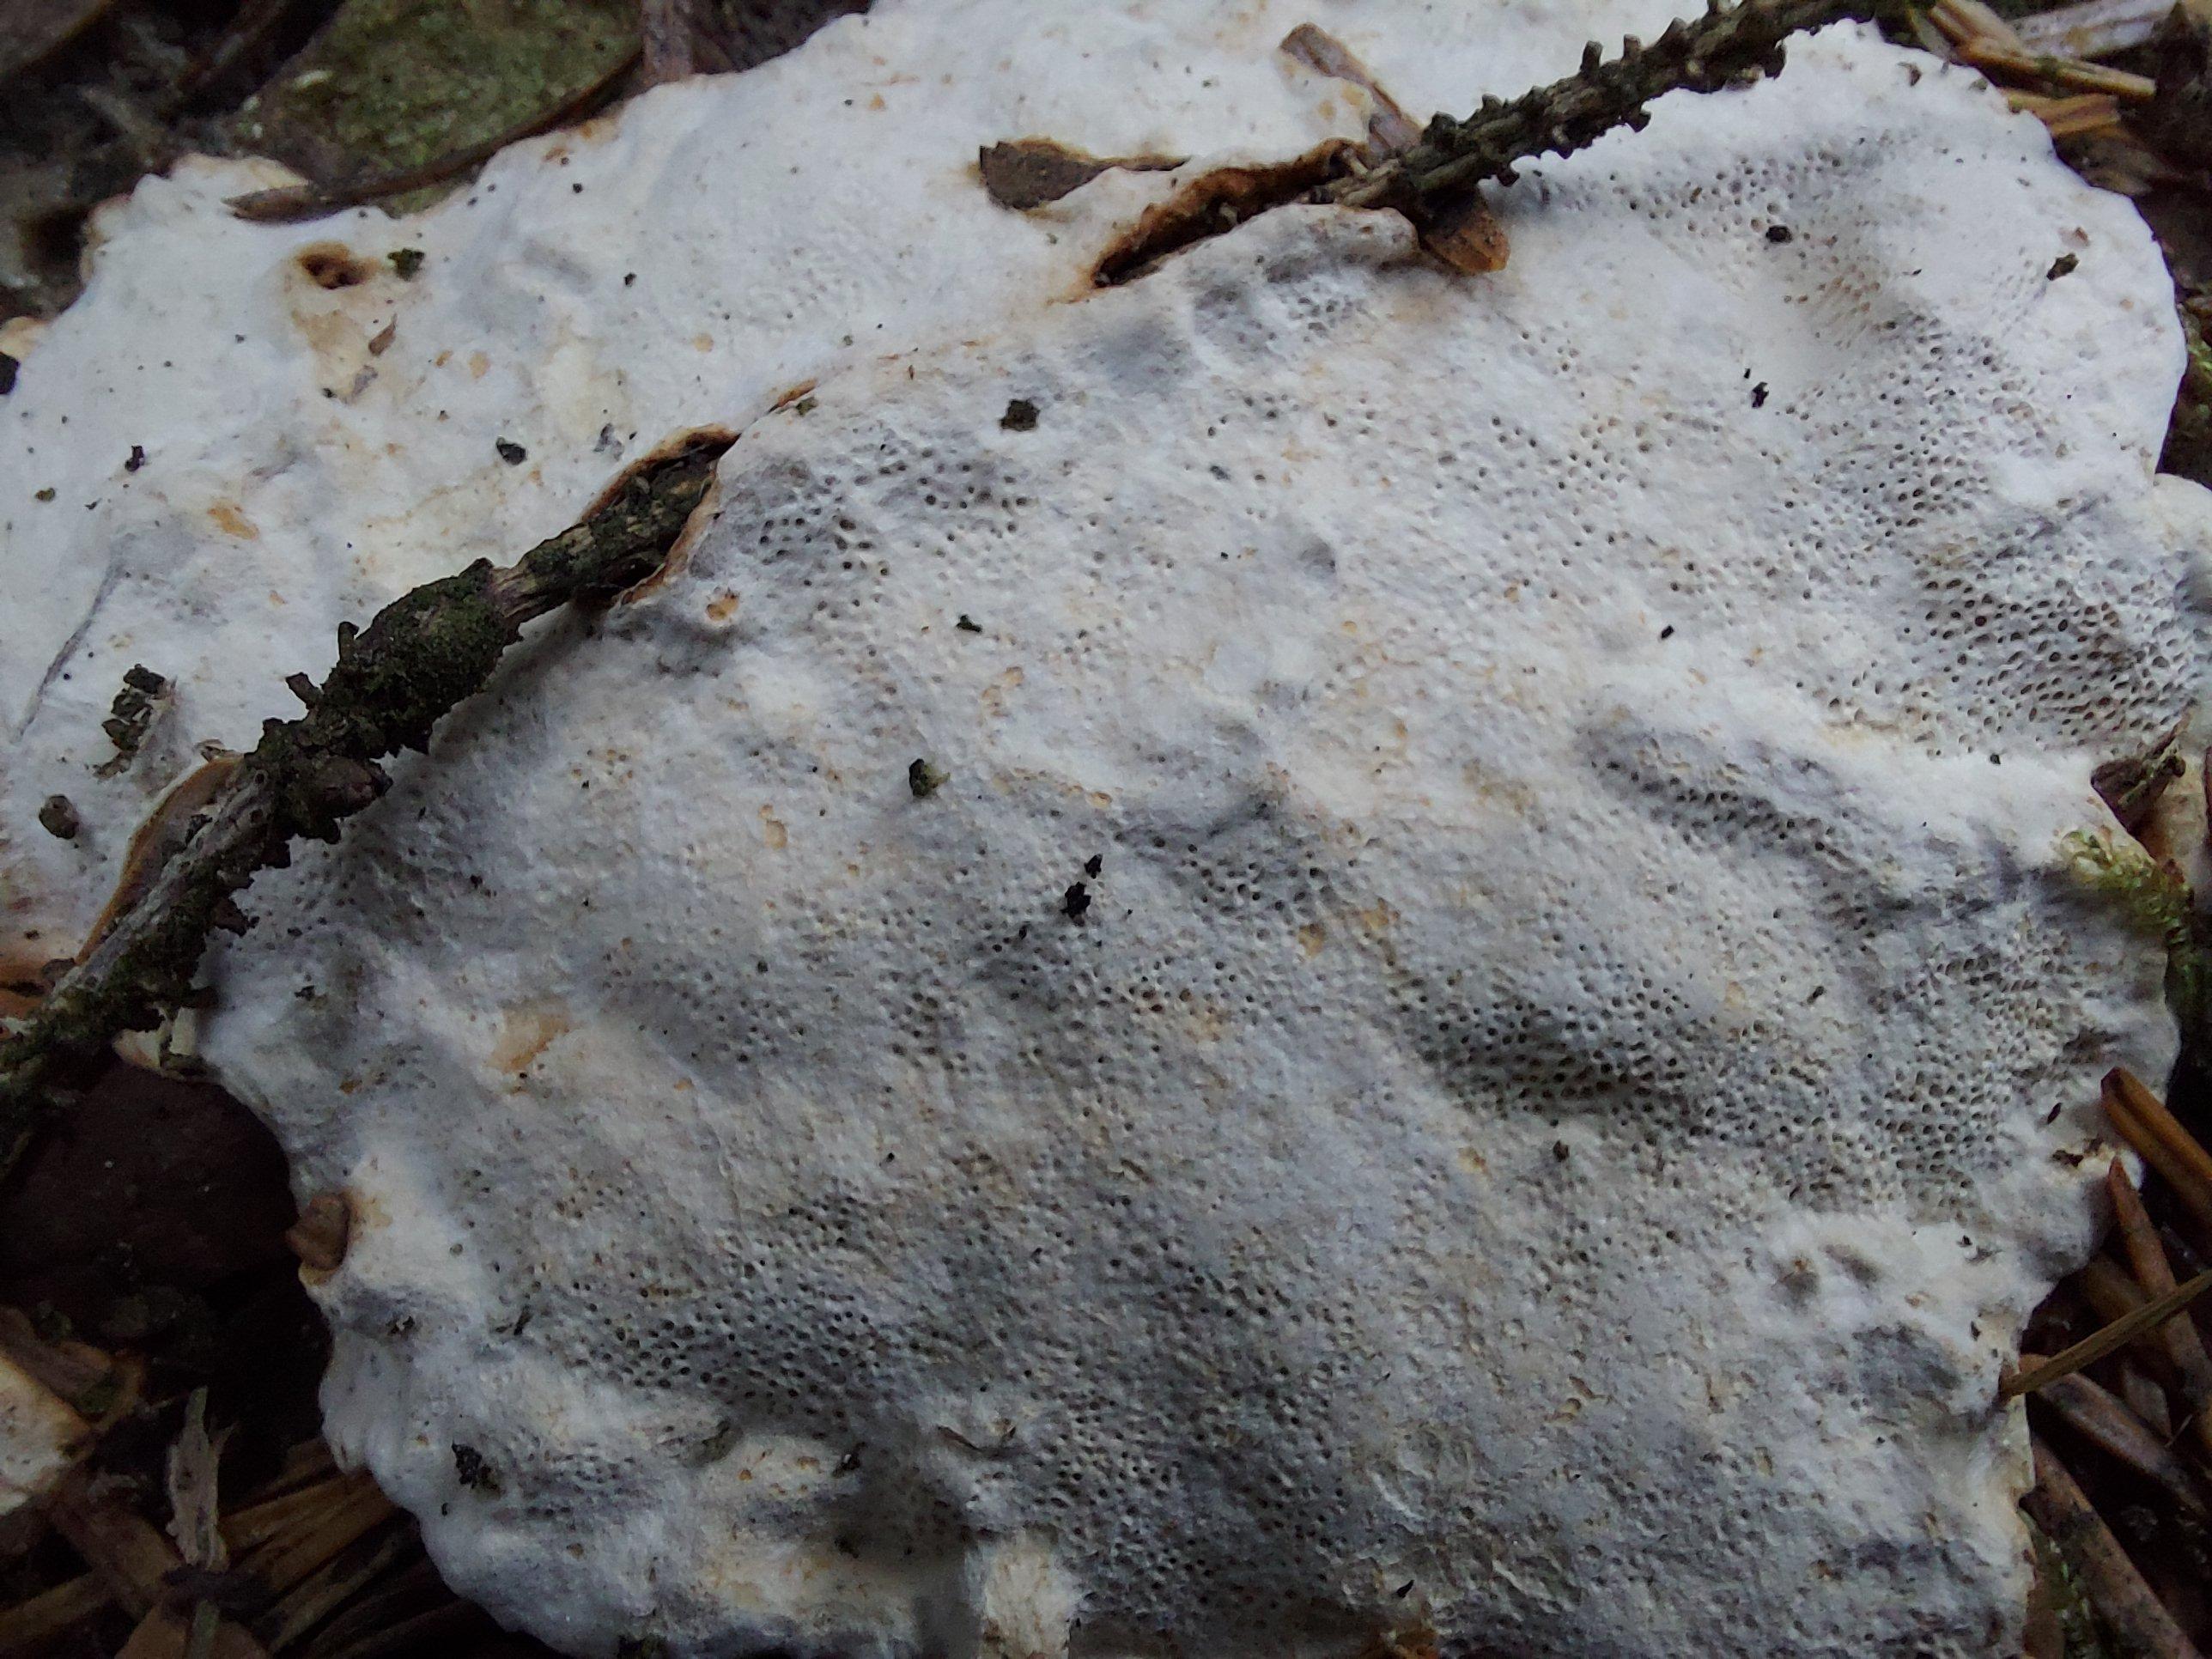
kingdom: Fungi
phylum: Basidiomycota
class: Agaricomycetes
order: Russulales
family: Bondarzewiaceae
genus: Heterobasidion
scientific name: Heterobasidion
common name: rodfordærver
